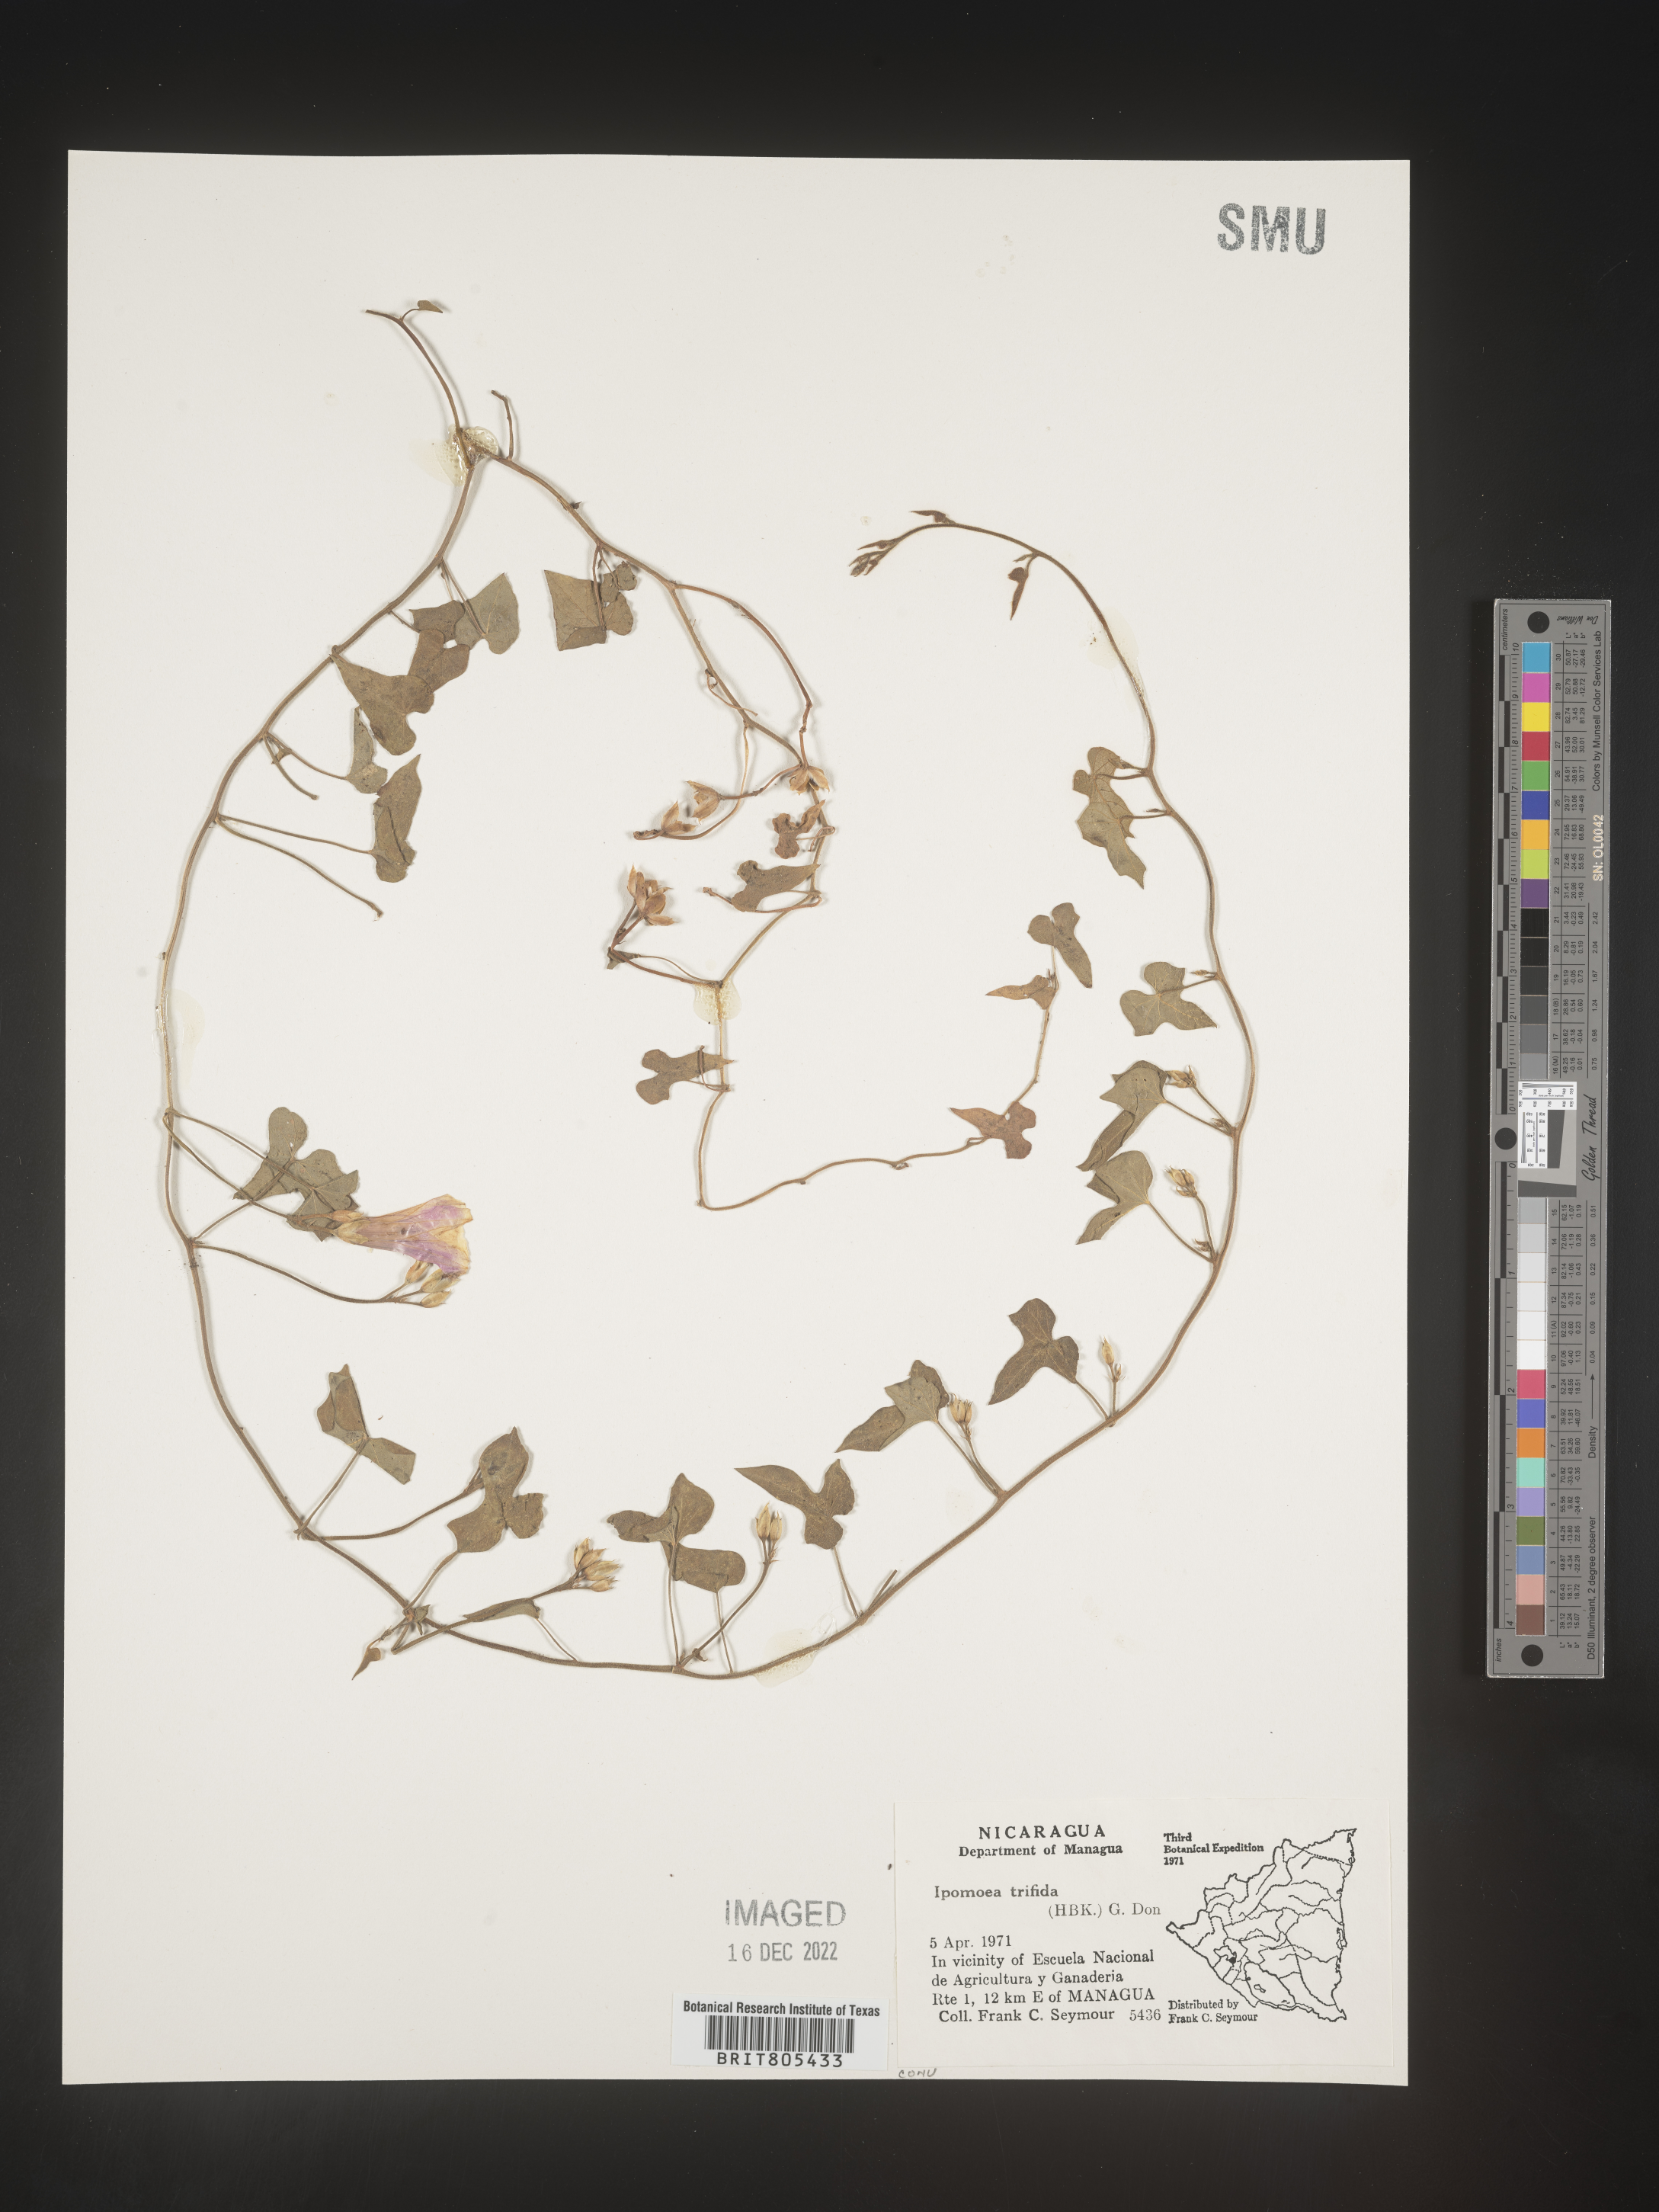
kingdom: Plantae
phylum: Tracheophyta
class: Magnoliopsida
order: Solanales
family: Convolvulaceae
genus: Ipomoea
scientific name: Ipomoea
